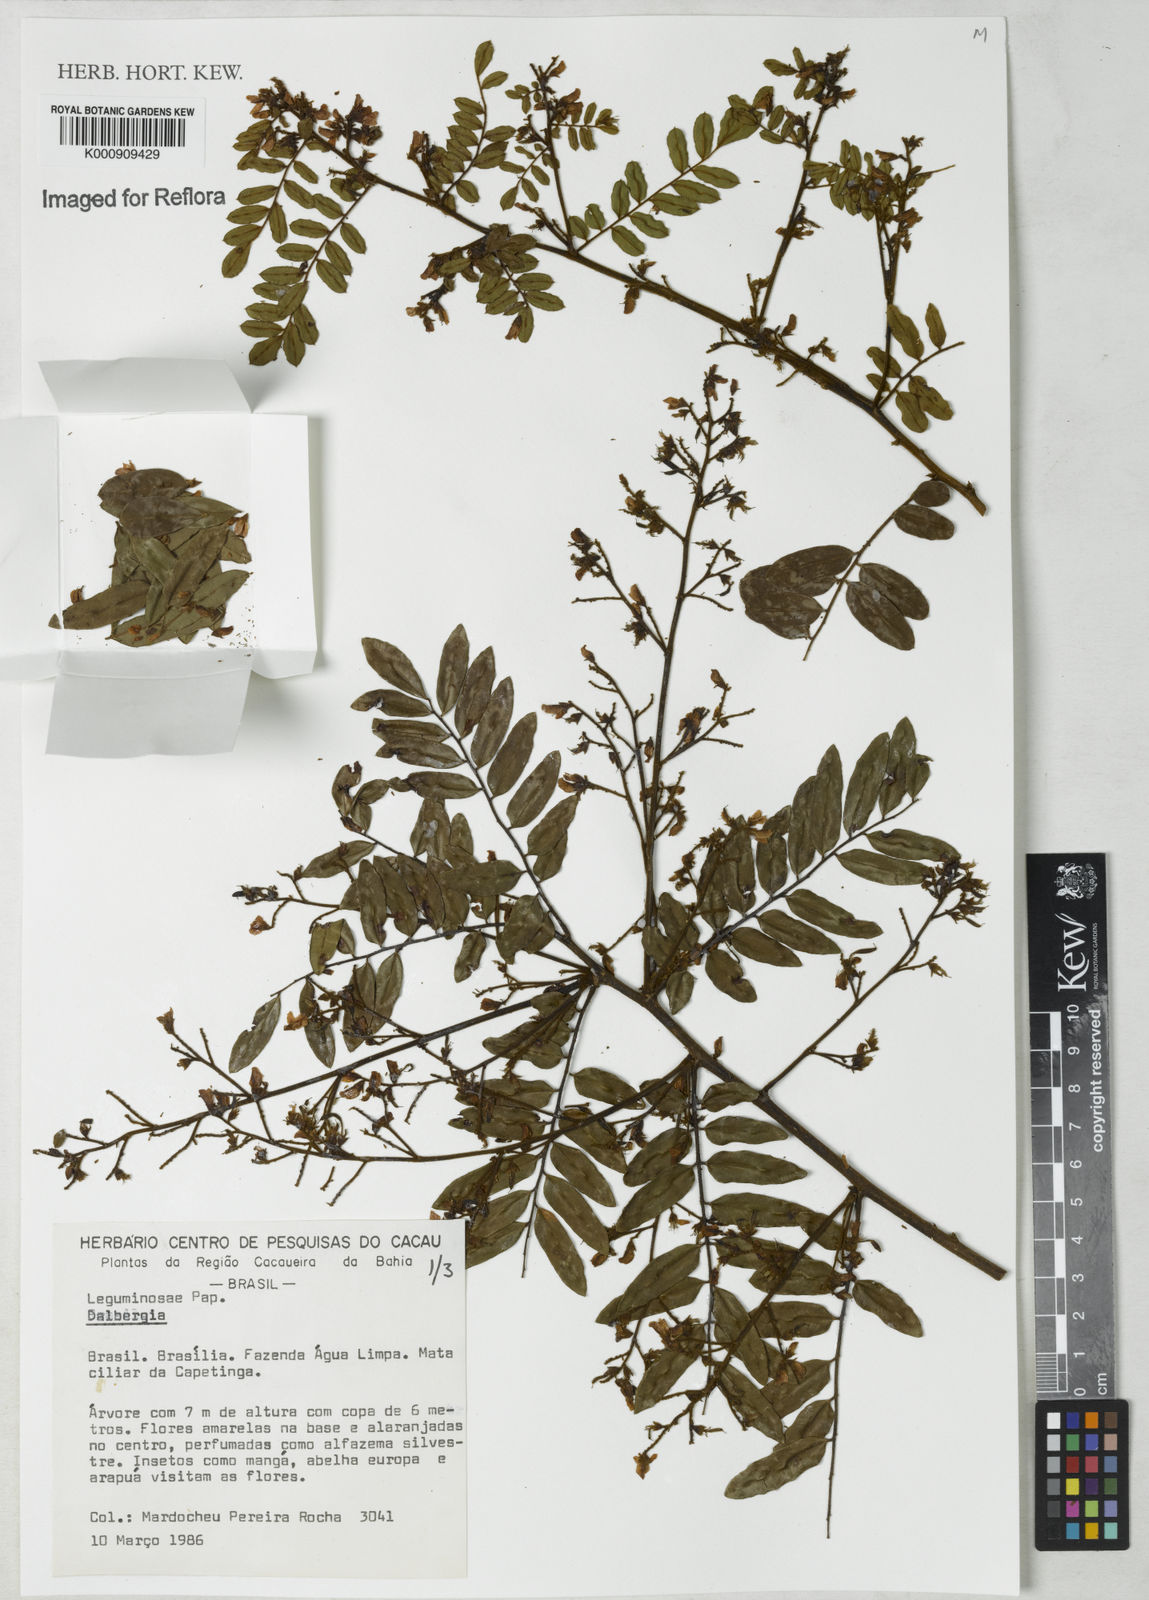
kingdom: Plantae
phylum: Tracheophyta
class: Magnoliopsida
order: Fabales
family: Fabaceae
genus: Dalbergia
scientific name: Dalbergia
